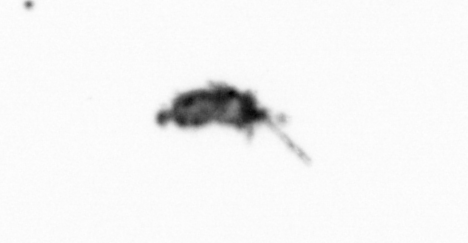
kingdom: Animalia
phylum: Arthropoda
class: Copepoda
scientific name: Copepoda
